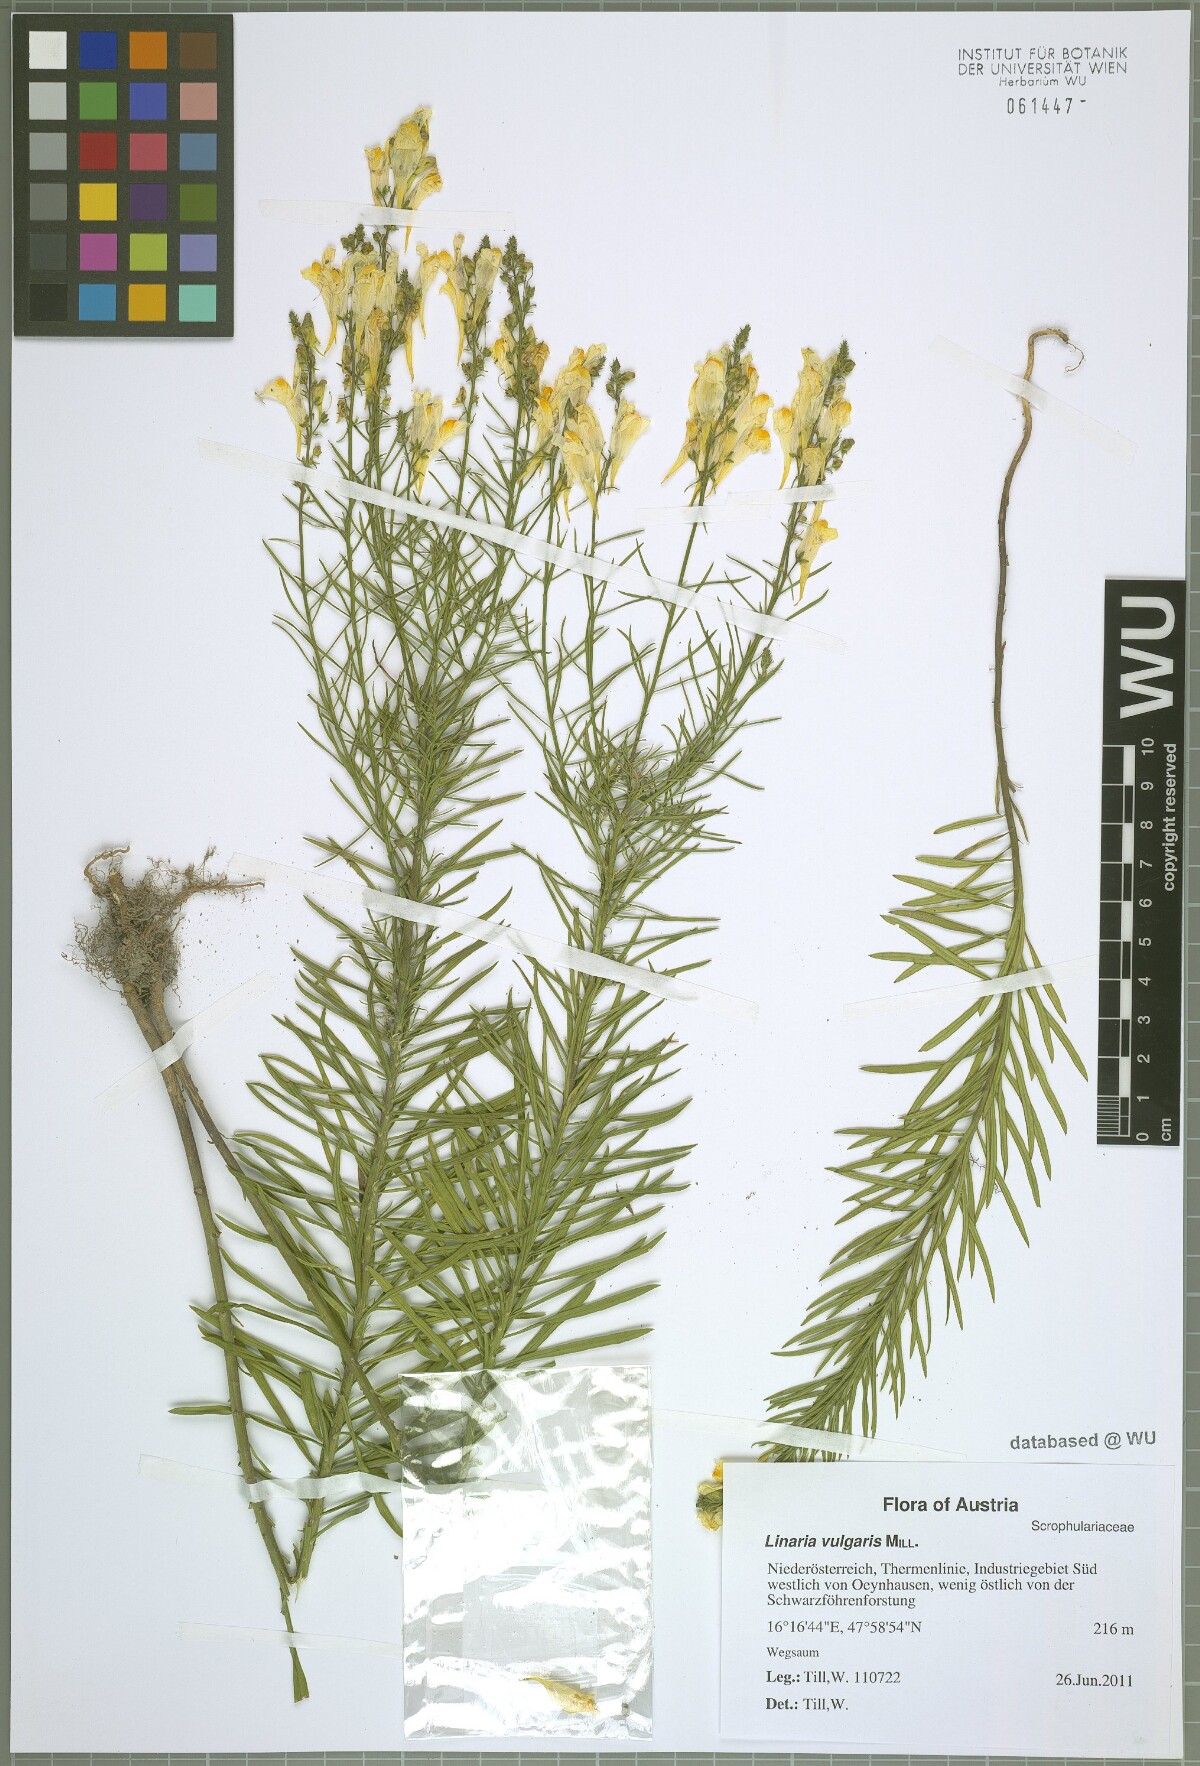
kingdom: Plantae
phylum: Tracheophyta
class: Magnoliopsida
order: Lamiales
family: Plantaginaceae
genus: Linaria
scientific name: Linaria vulgaris
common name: Butter and eggs
